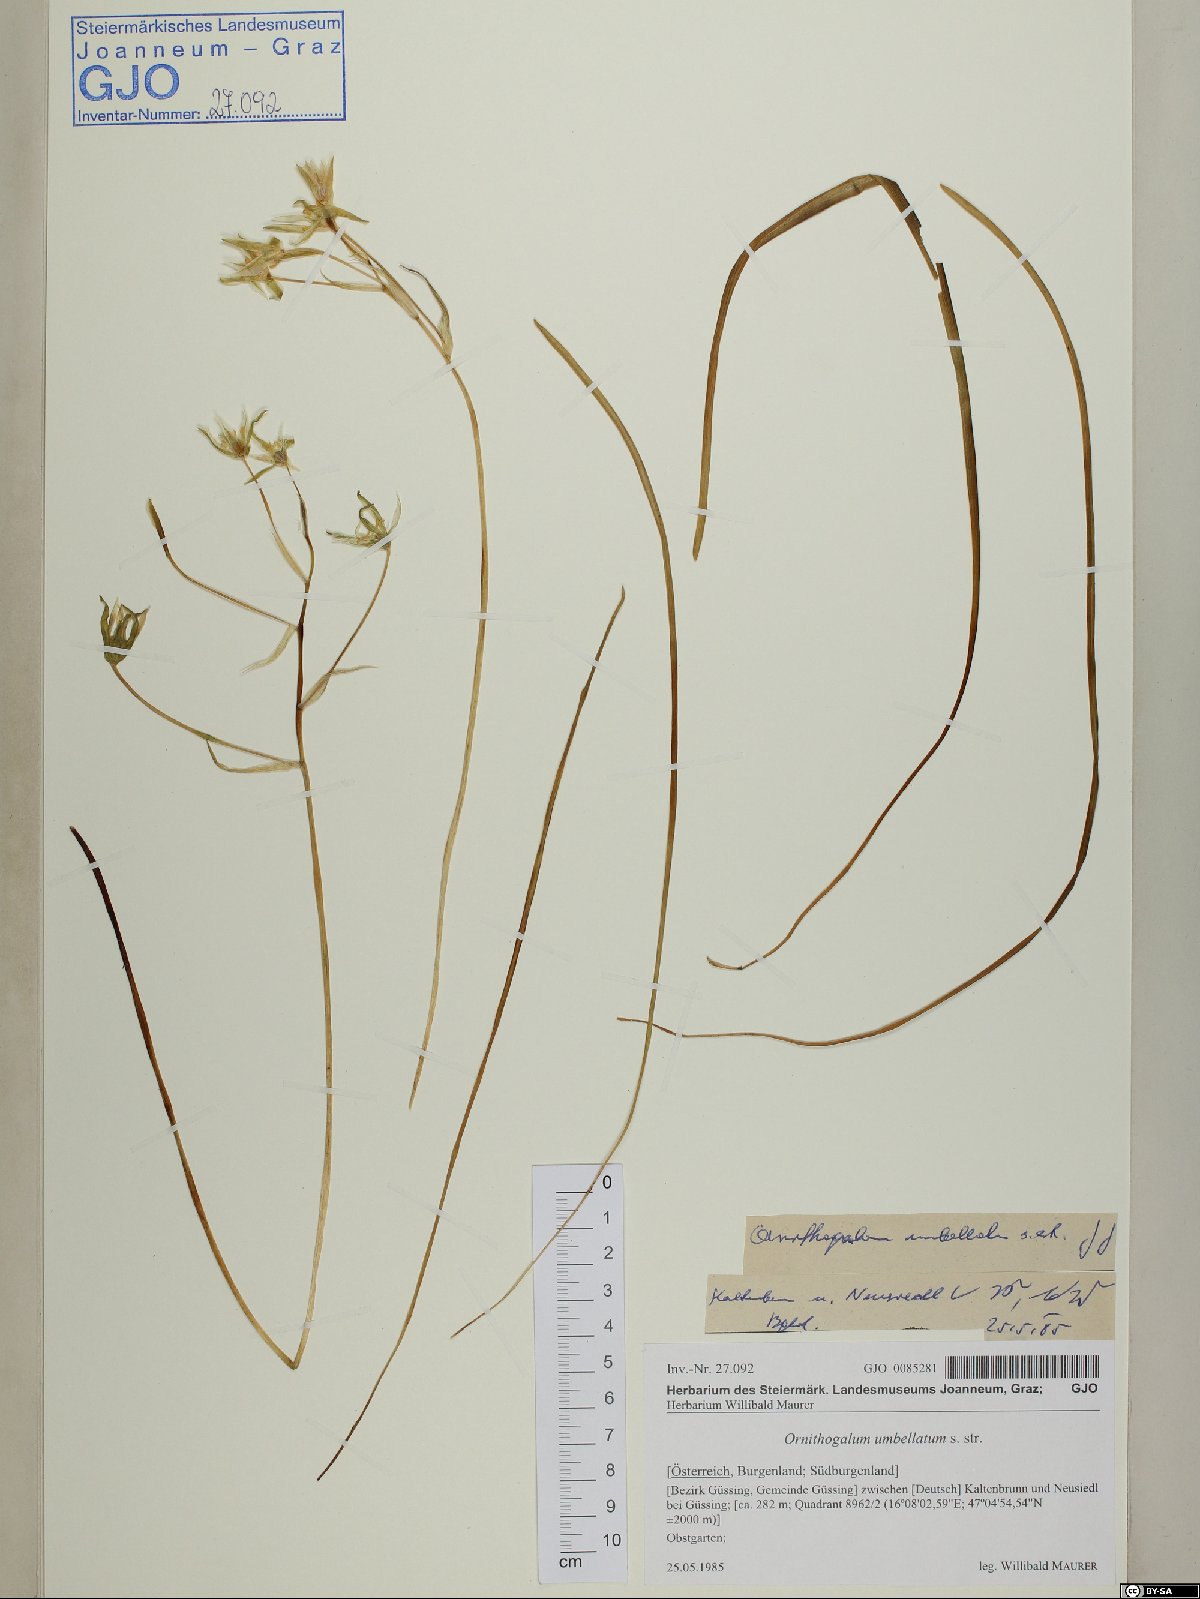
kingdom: Plantae
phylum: Tracheophyta
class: Liliopsida
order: Asparagales
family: Asparagaceae
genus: Ornithogalum
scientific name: Ornithogalum umbellatum
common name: Garden star-of-bethlehem
